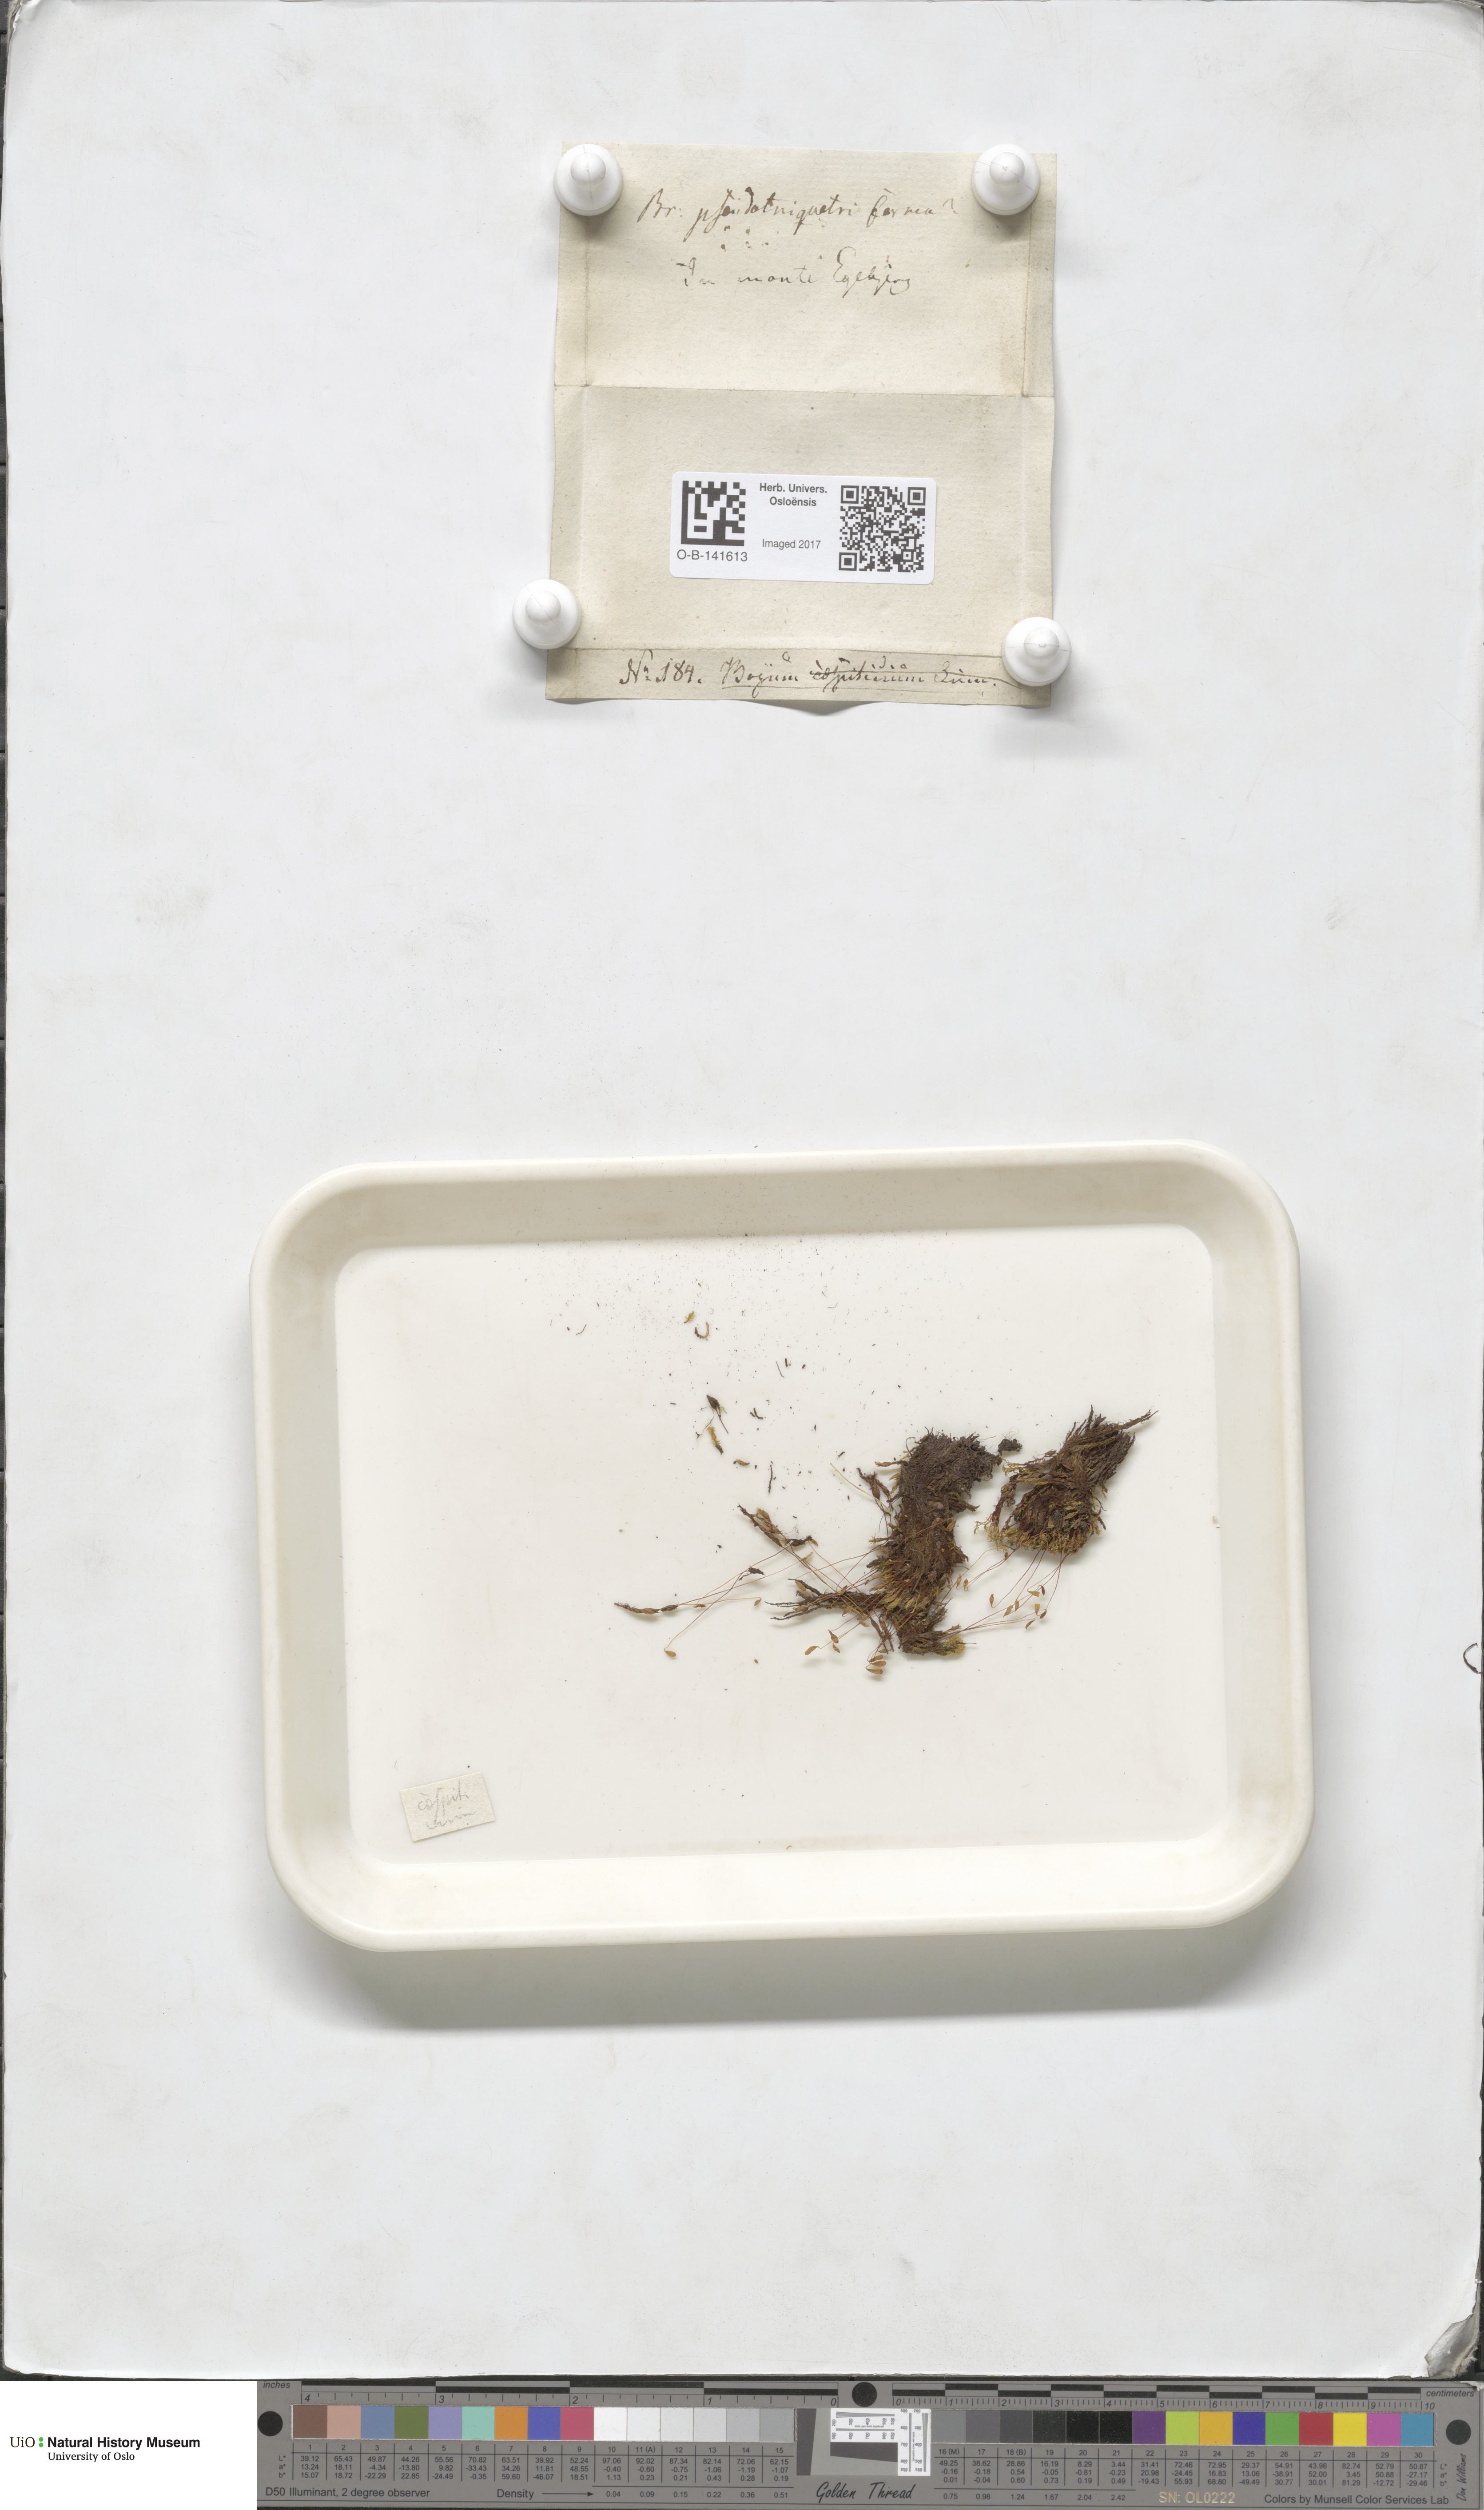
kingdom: Plantae
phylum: Bryophyta
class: Bryopsida
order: Bryales
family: Bryaceae
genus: Ptychostomum
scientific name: Ptychostomum pseudotriquetrum
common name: Long-leaved thread moss
